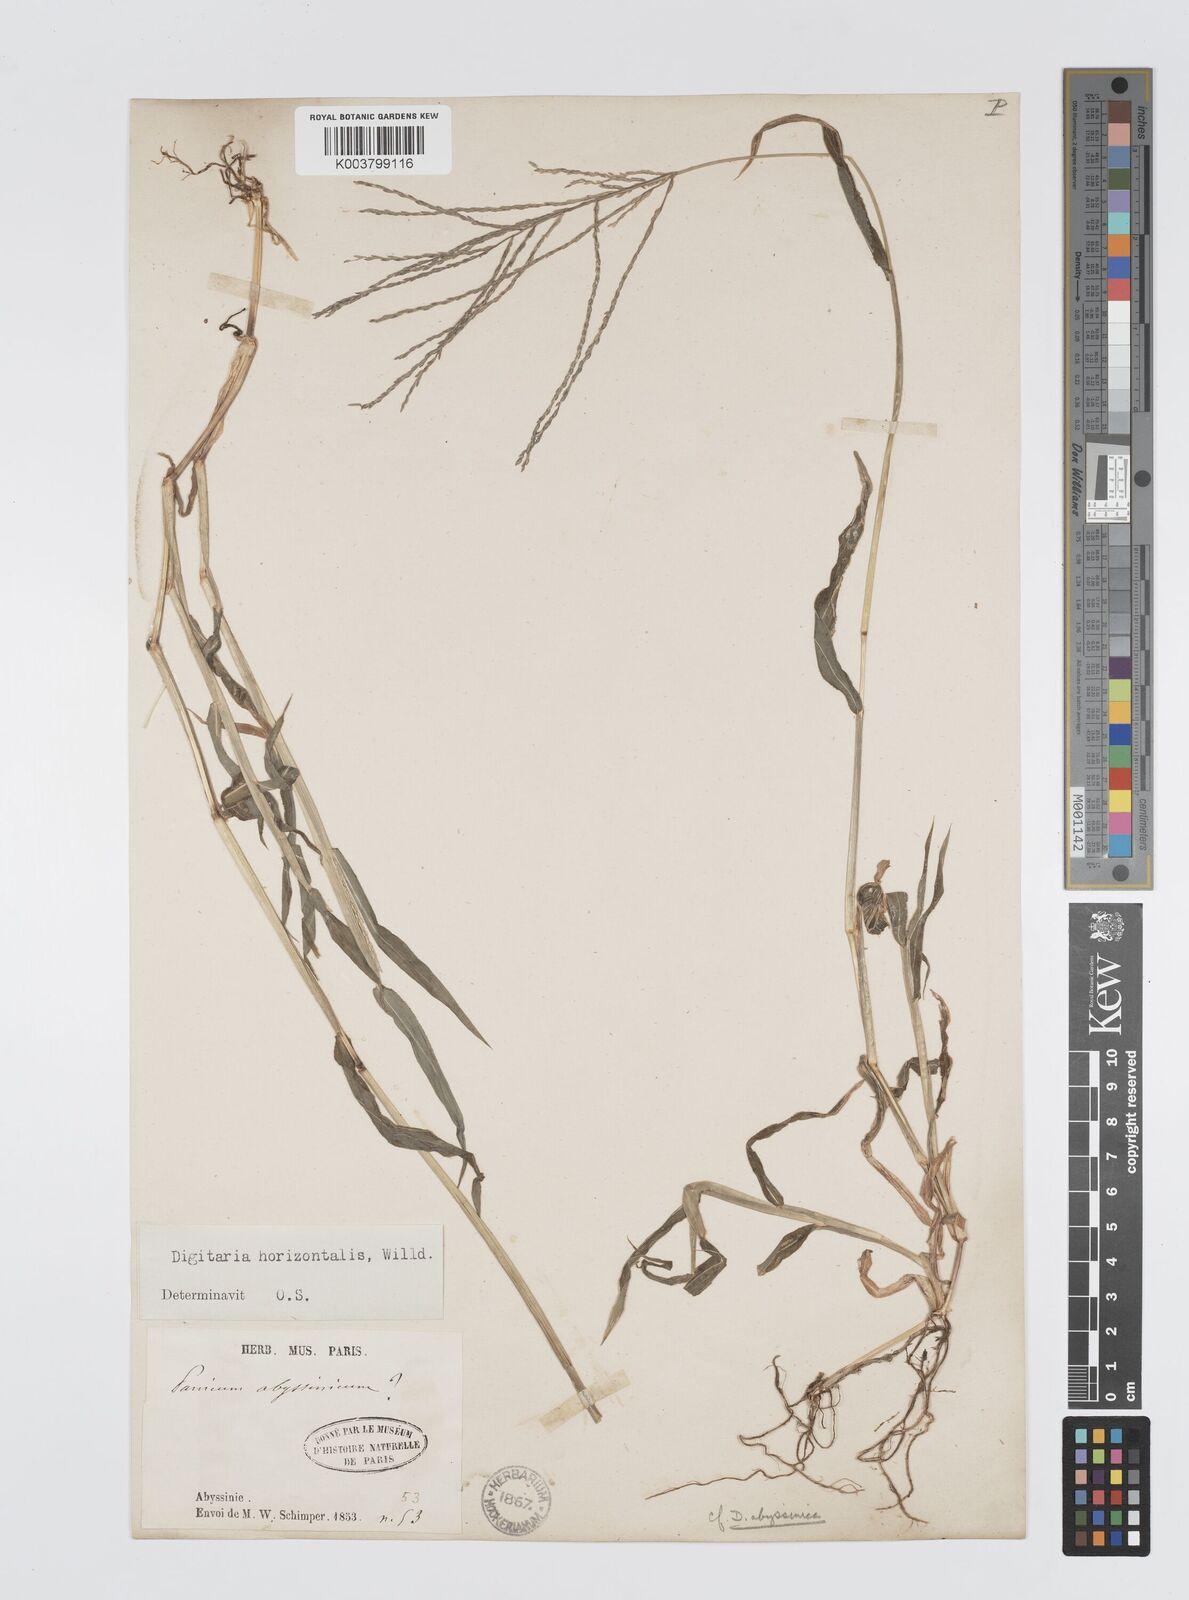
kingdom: Plantae
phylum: Tracheophyta
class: Liliopsida
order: Poales
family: Poaceae
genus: Digitaria
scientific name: Digitaria horizontalis
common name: Jamaican crabgrass
